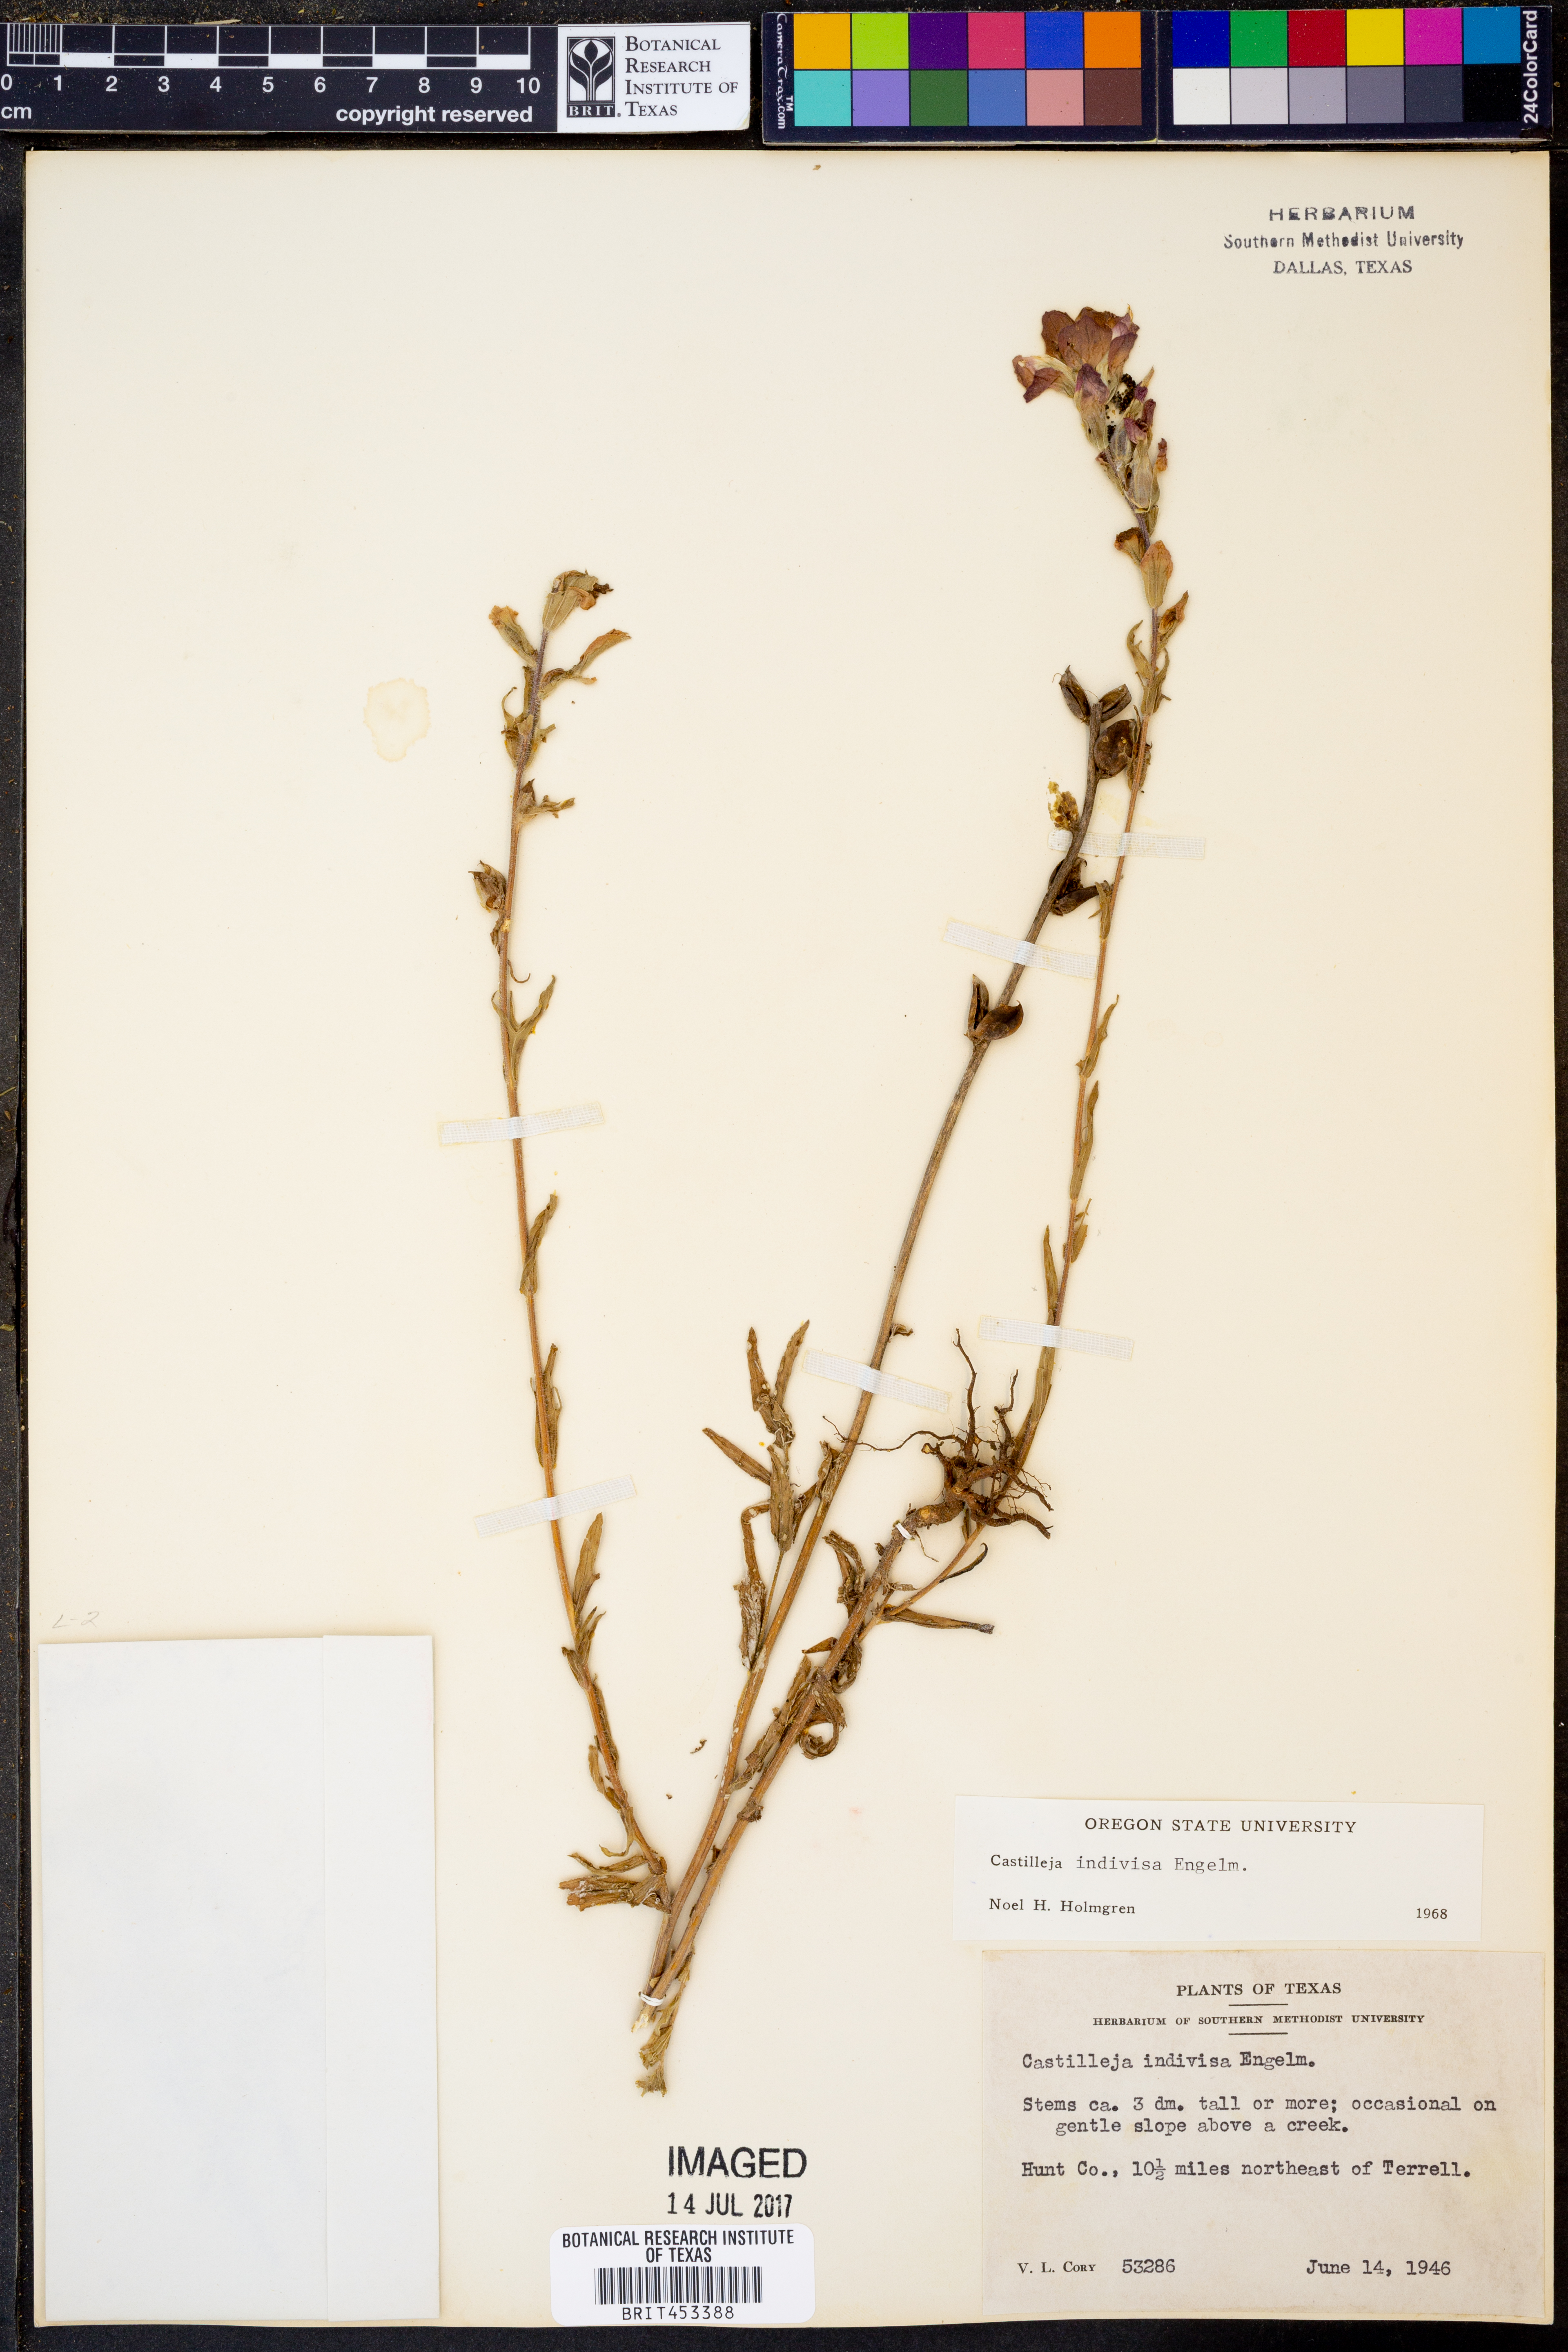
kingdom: Plantae
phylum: Tracheophyta
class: Magnoliopsida
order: Lamiales
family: Orobanchaceae
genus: Castilleja
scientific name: Castilleja indivisa
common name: Texas paintbrush
